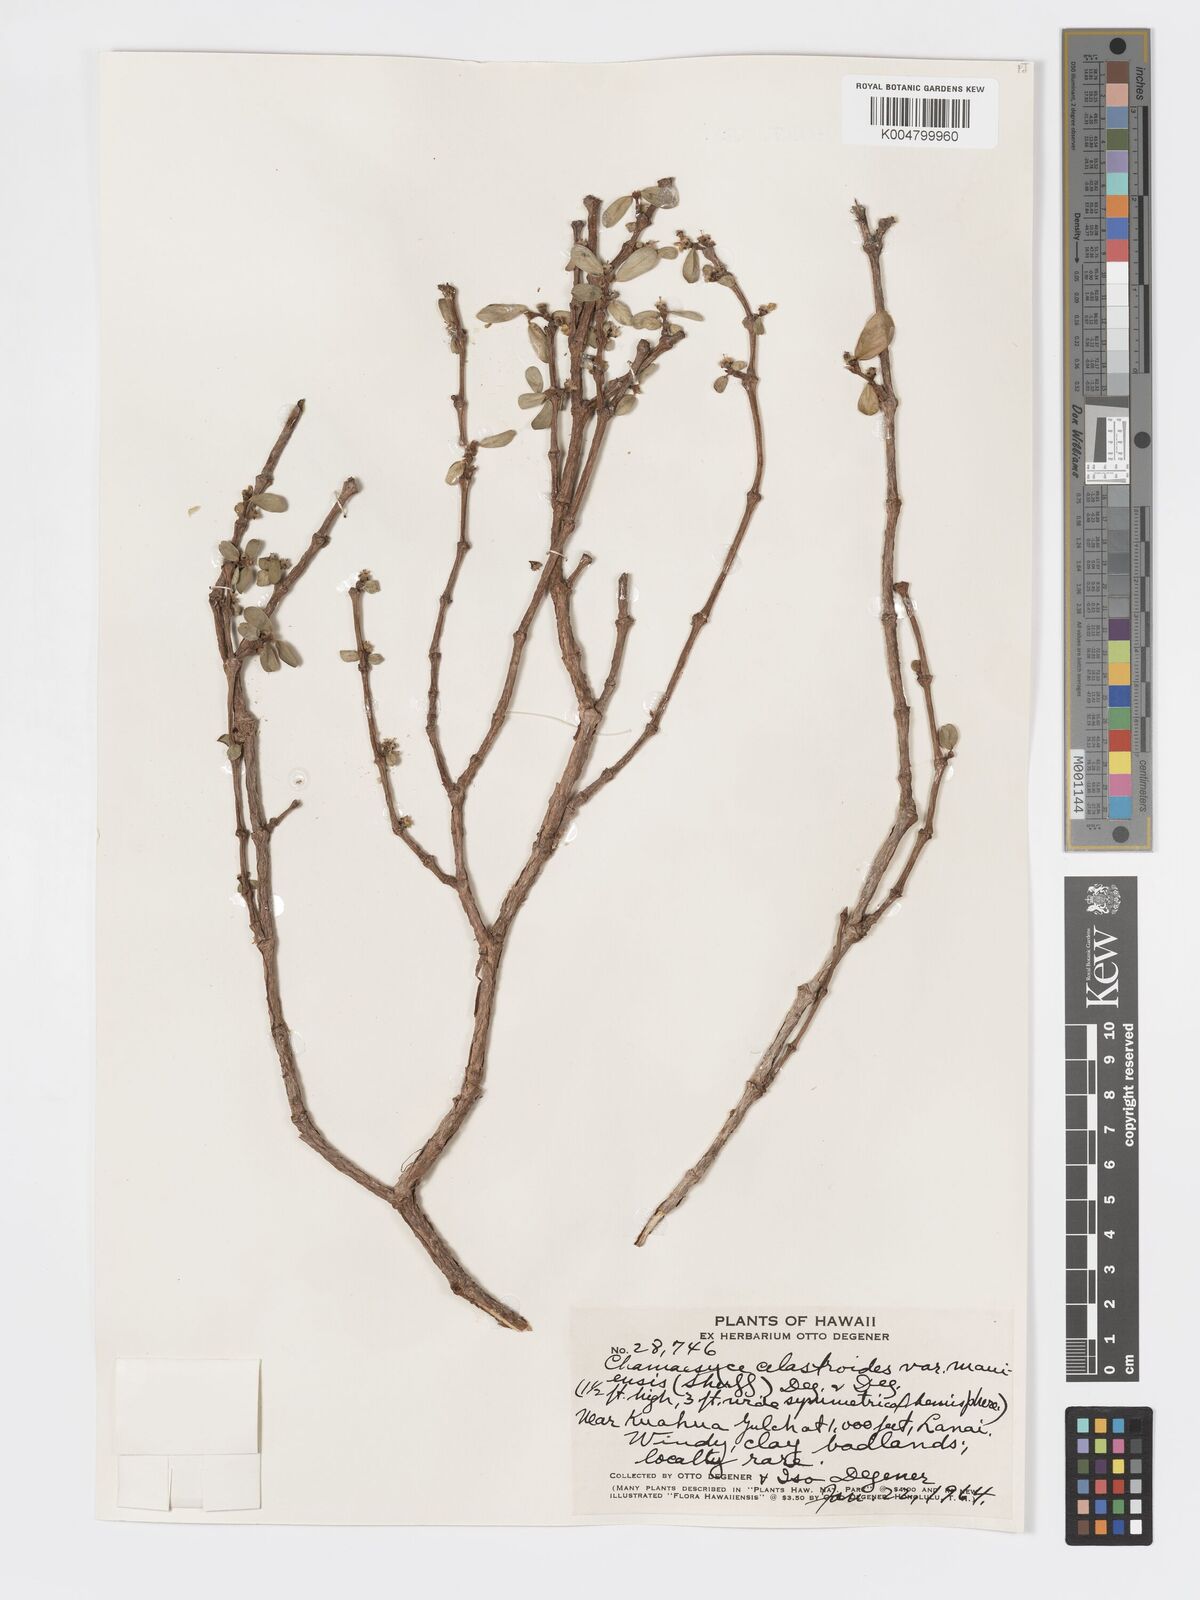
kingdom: Plantae
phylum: Tracheophyta
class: Magnoliopsida
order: Malpighiales
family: Euphorbiaceae
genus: Euphorbia
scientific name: Euphorbia celastroides
